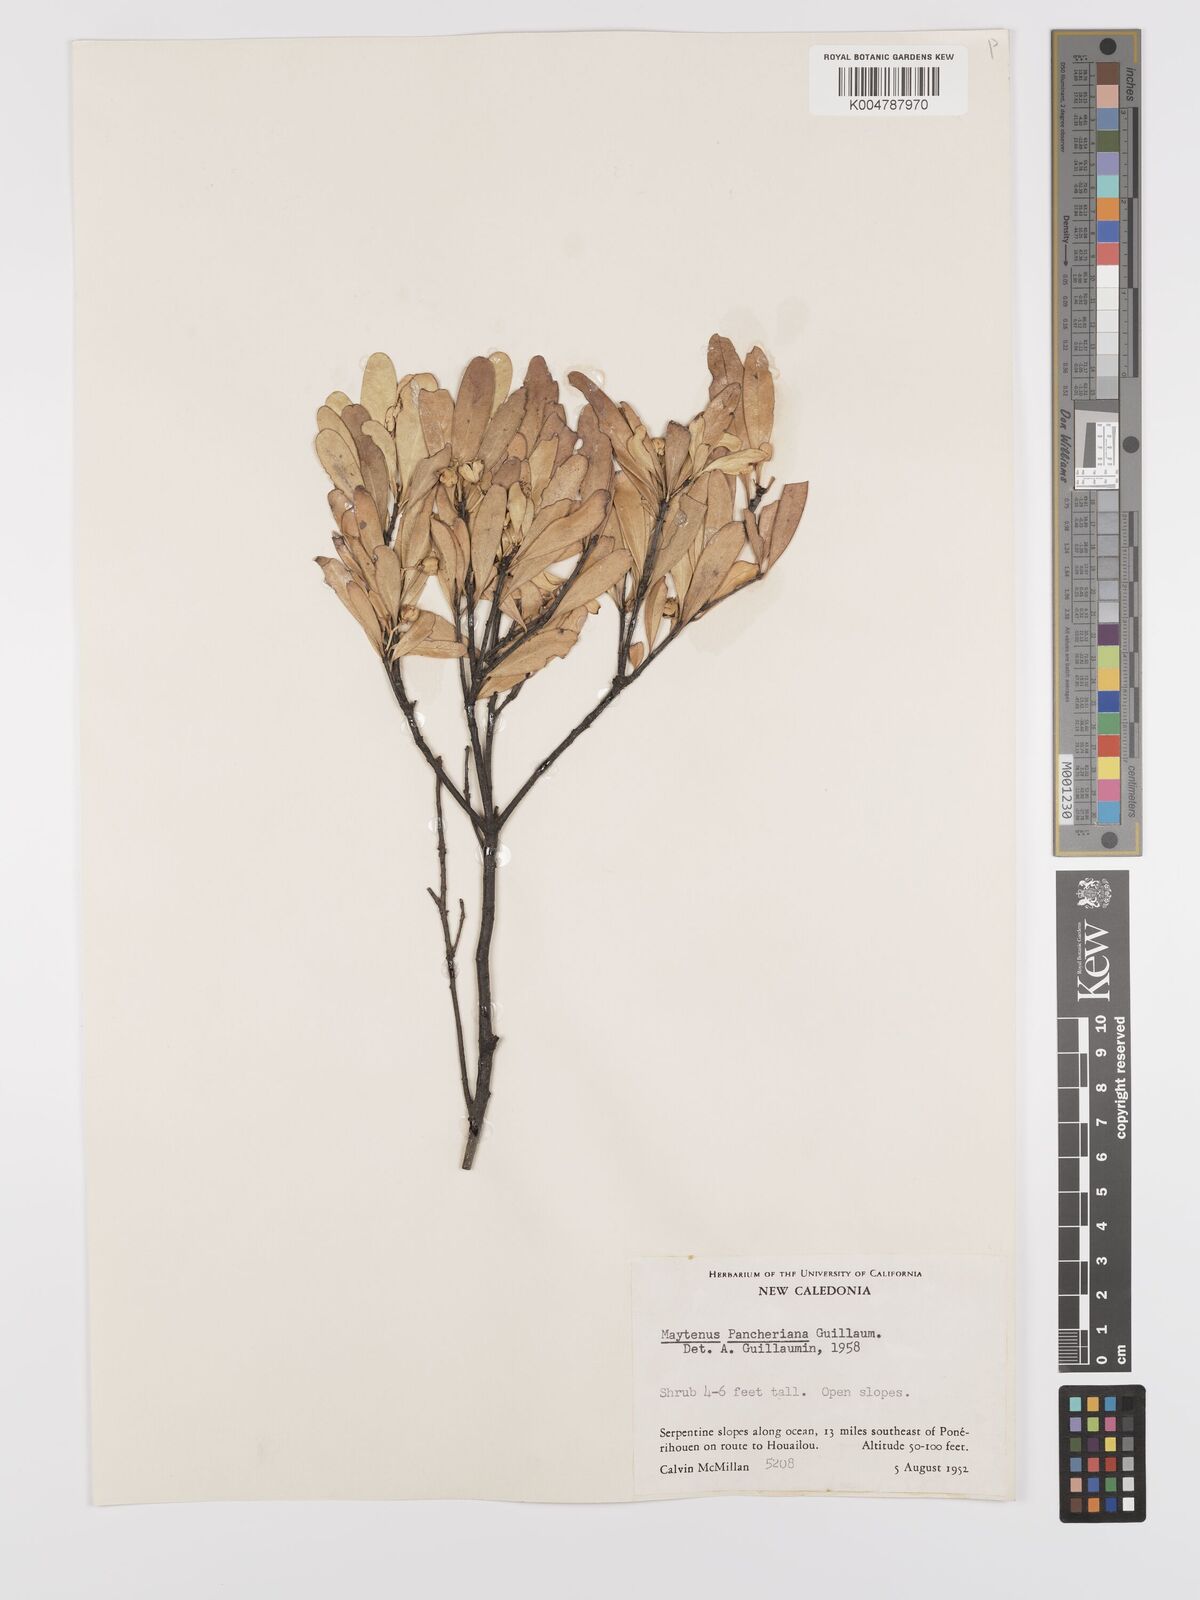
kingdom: Plantae
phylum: Tracheophyta
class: Magnoliopsida
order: Celastrales
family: Celastraceae
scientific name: Celastraceae
